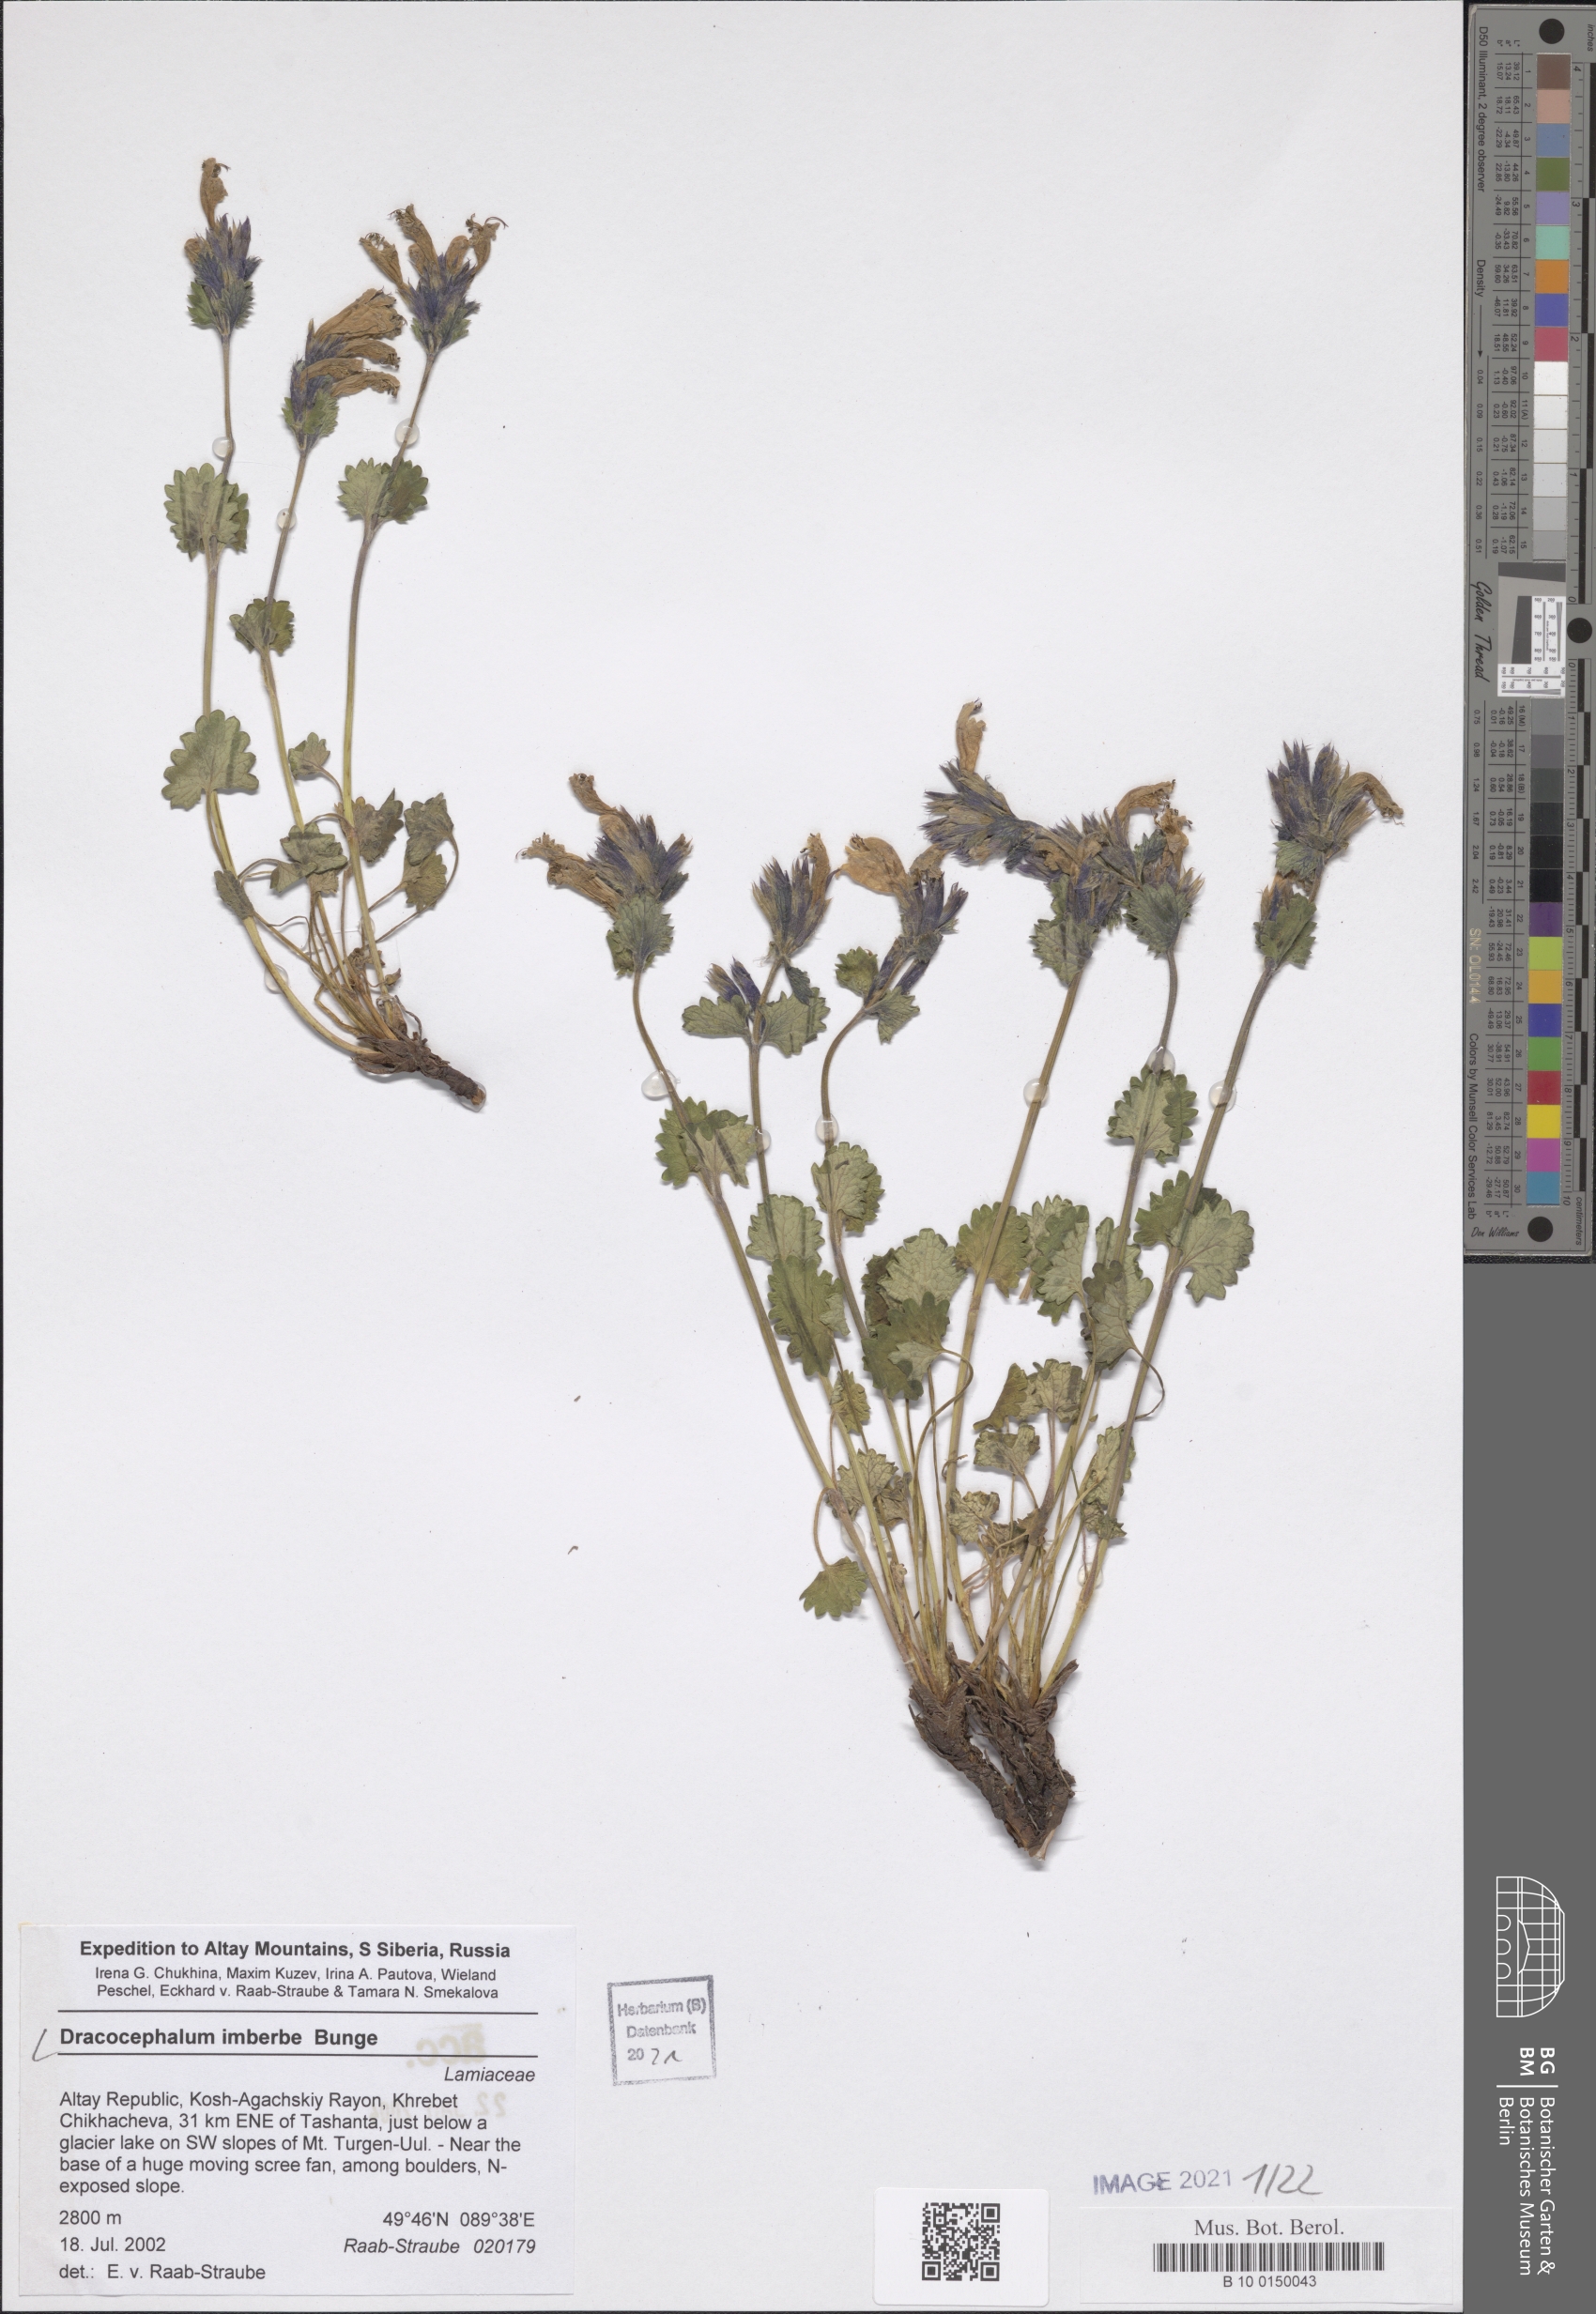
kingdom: Plantae
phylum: Tracheophyta
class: Magnoliopsida
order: Lamiales
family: Lamiaceae
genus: Dracocephalum
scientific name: Dracocephalum imberbe
